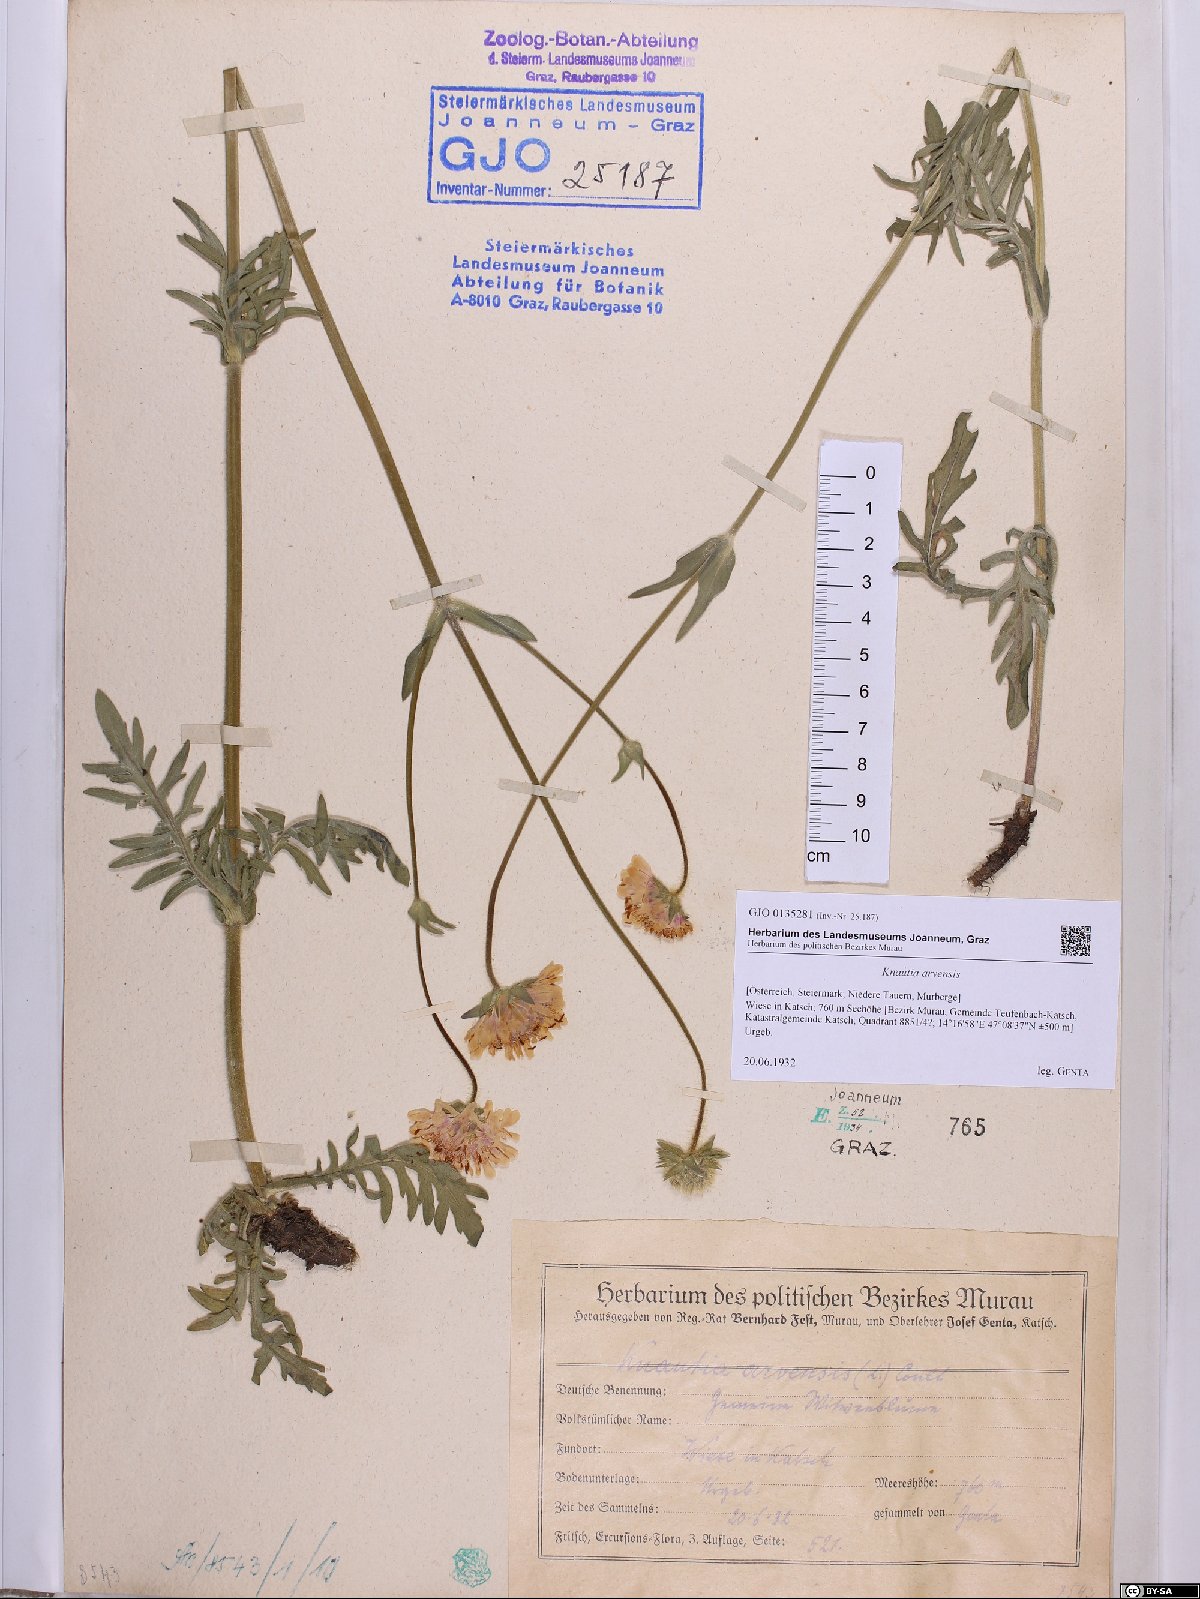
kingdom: Plantae
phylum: Tracheophyta
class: Magnoliopsida
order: Dipsacales
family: Caprifoliaceae
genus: Knautia
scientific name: Knautia arvensis
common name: Field scabiosa
